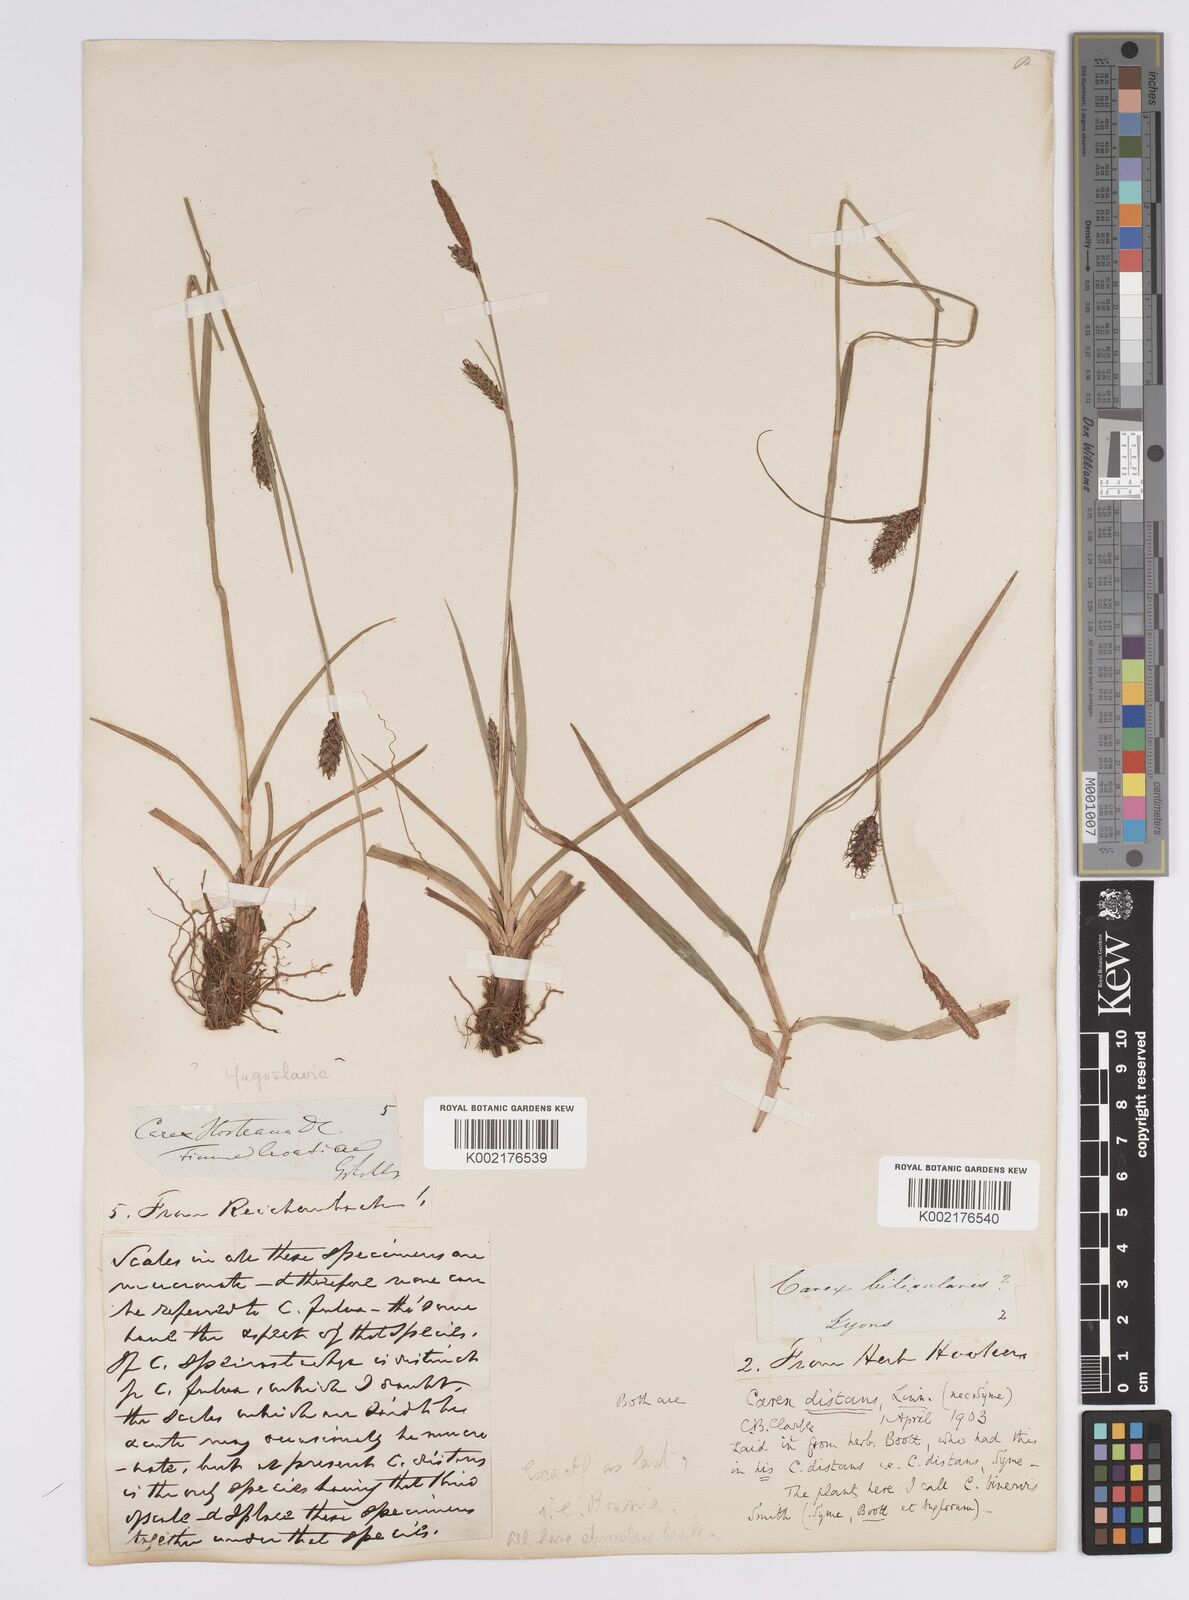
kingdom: Plantae
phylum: Tracheophyta
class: Liliopsida
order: Poales
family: Cyperaceae
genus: Carex
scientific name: Carex distans
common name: Distant sedge
